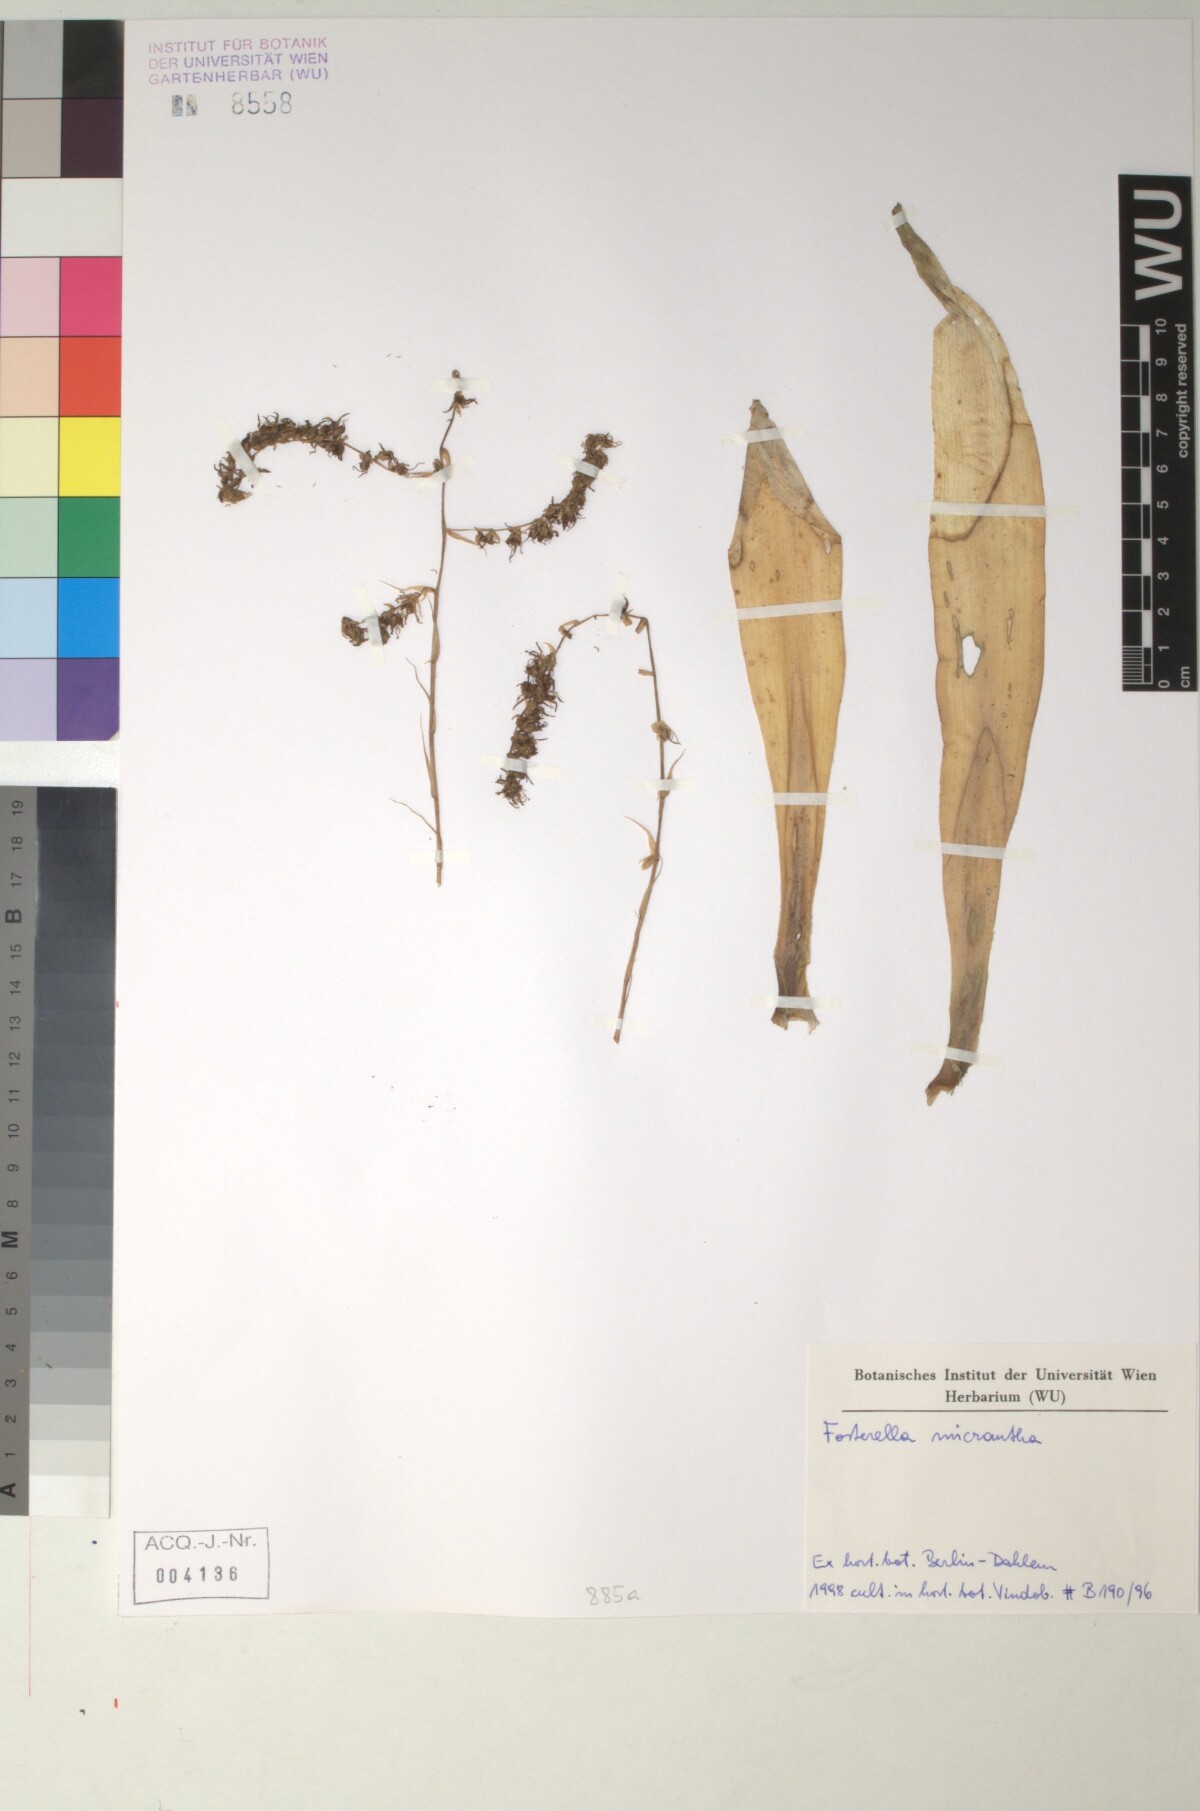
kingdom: Plantae
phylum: Tracheophyta
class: Liliopsida
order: Poales
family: Bromeliaceae
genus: Fosterella
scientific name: Fosterella micrantha
